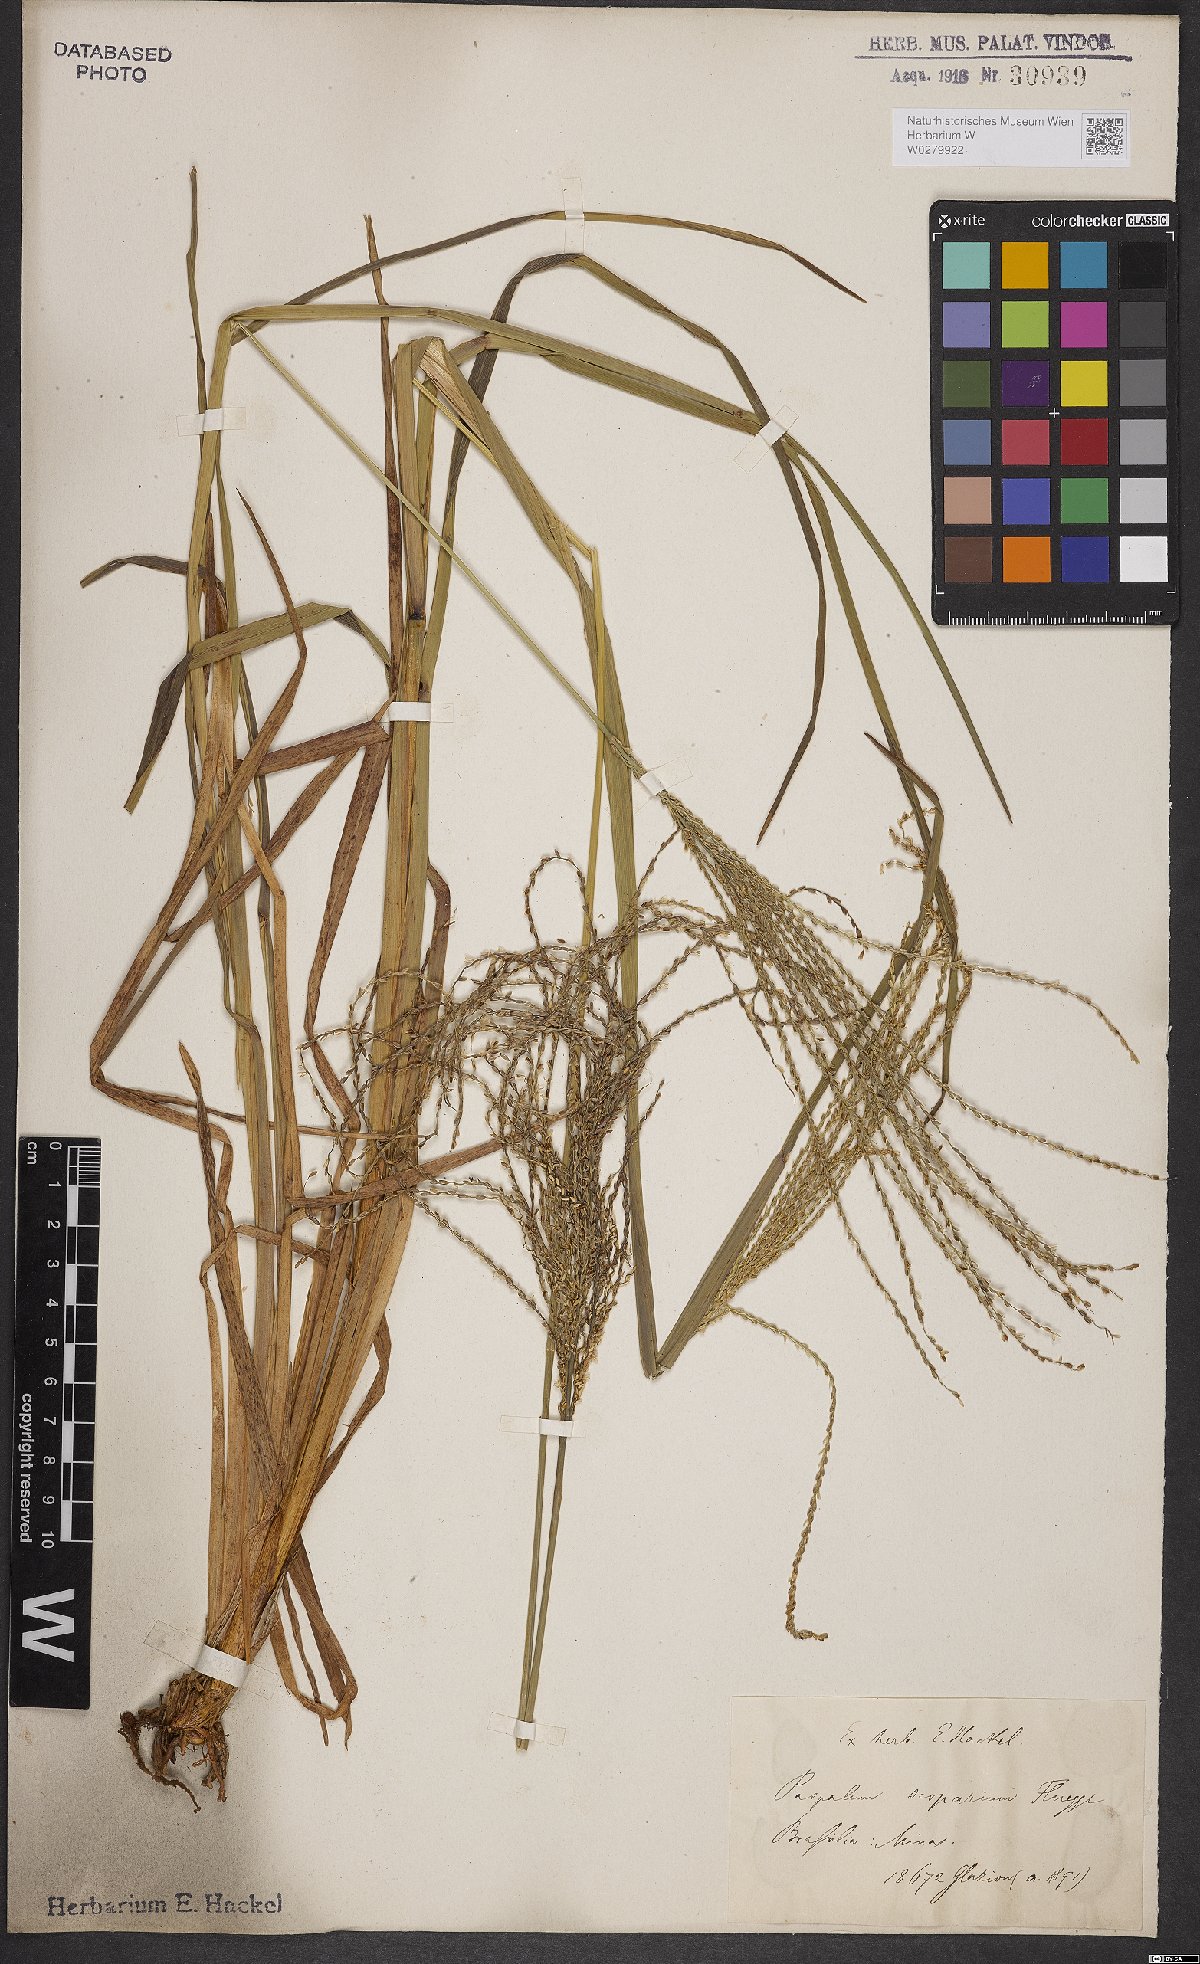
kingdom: Plantae
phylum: Tracheophyta
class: Liliopsida
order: Poales
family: Poaceae
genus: Axonopus
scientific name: Axonopus scoparius
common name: Imperial grass
